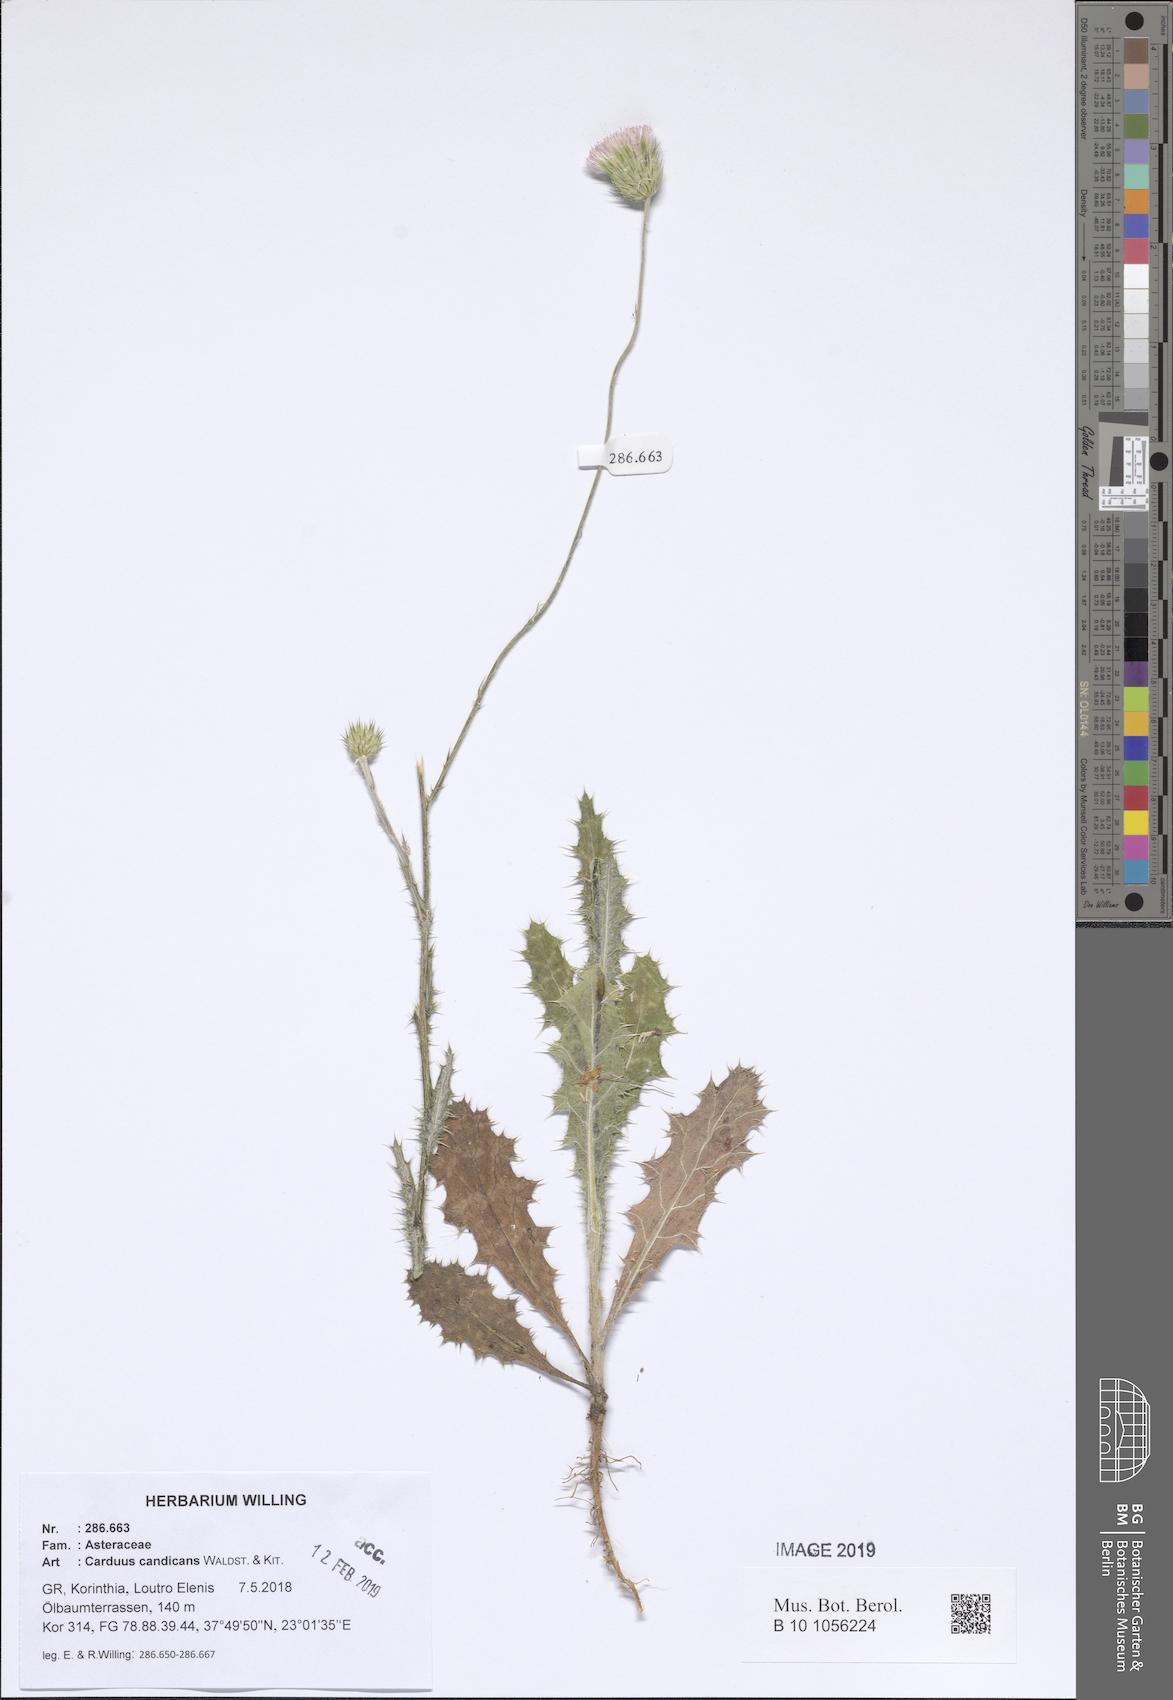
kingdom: Plantae
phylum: Tracheophyta
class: Magnoliopsida
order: Asterales
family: Asteraceae
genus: Carduus
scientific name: Carduus candicans
